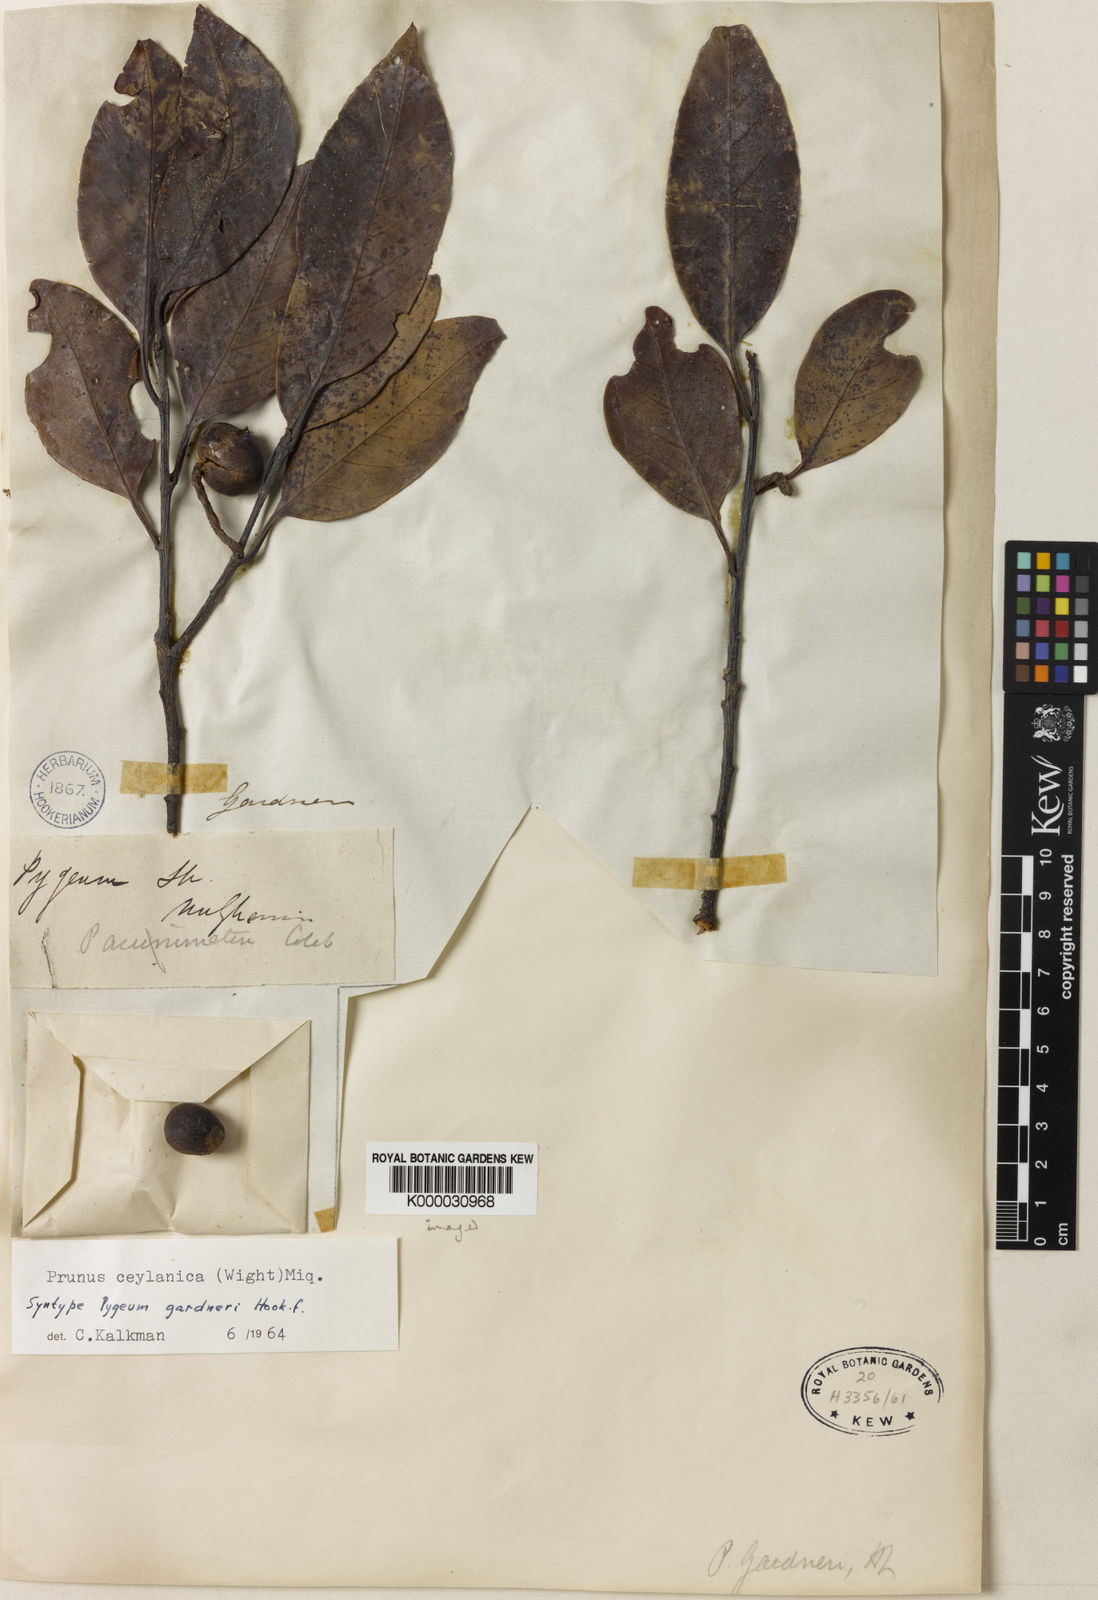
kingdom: Plantae
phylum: Tracheophyta
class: Magnoliopsida
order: Rosales
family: Rosaceae
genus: Prunus
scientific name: Prunus ceylanica
